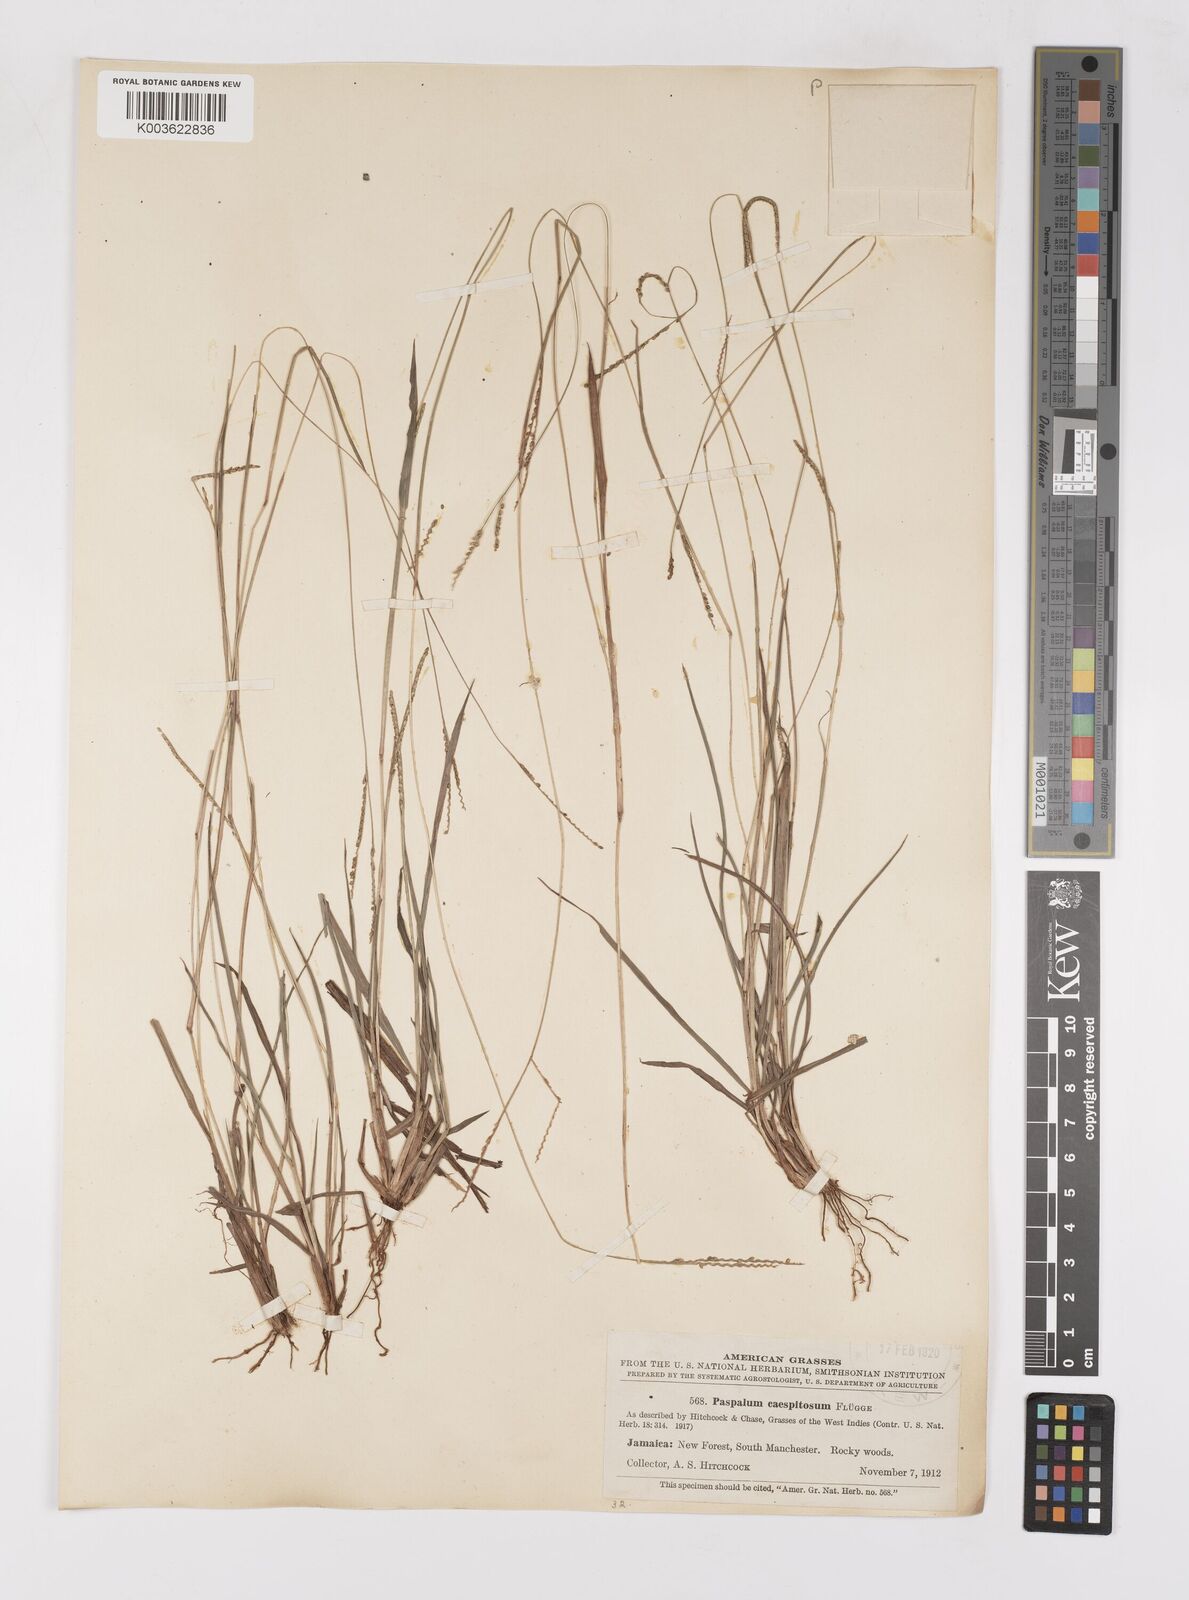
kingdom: Plantae
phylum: Tracheophyta
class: Liliopsida
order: Poales
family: Poaceae
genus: Paspalum
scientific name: Paspalum caespitosum
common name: Blue crowngrass
